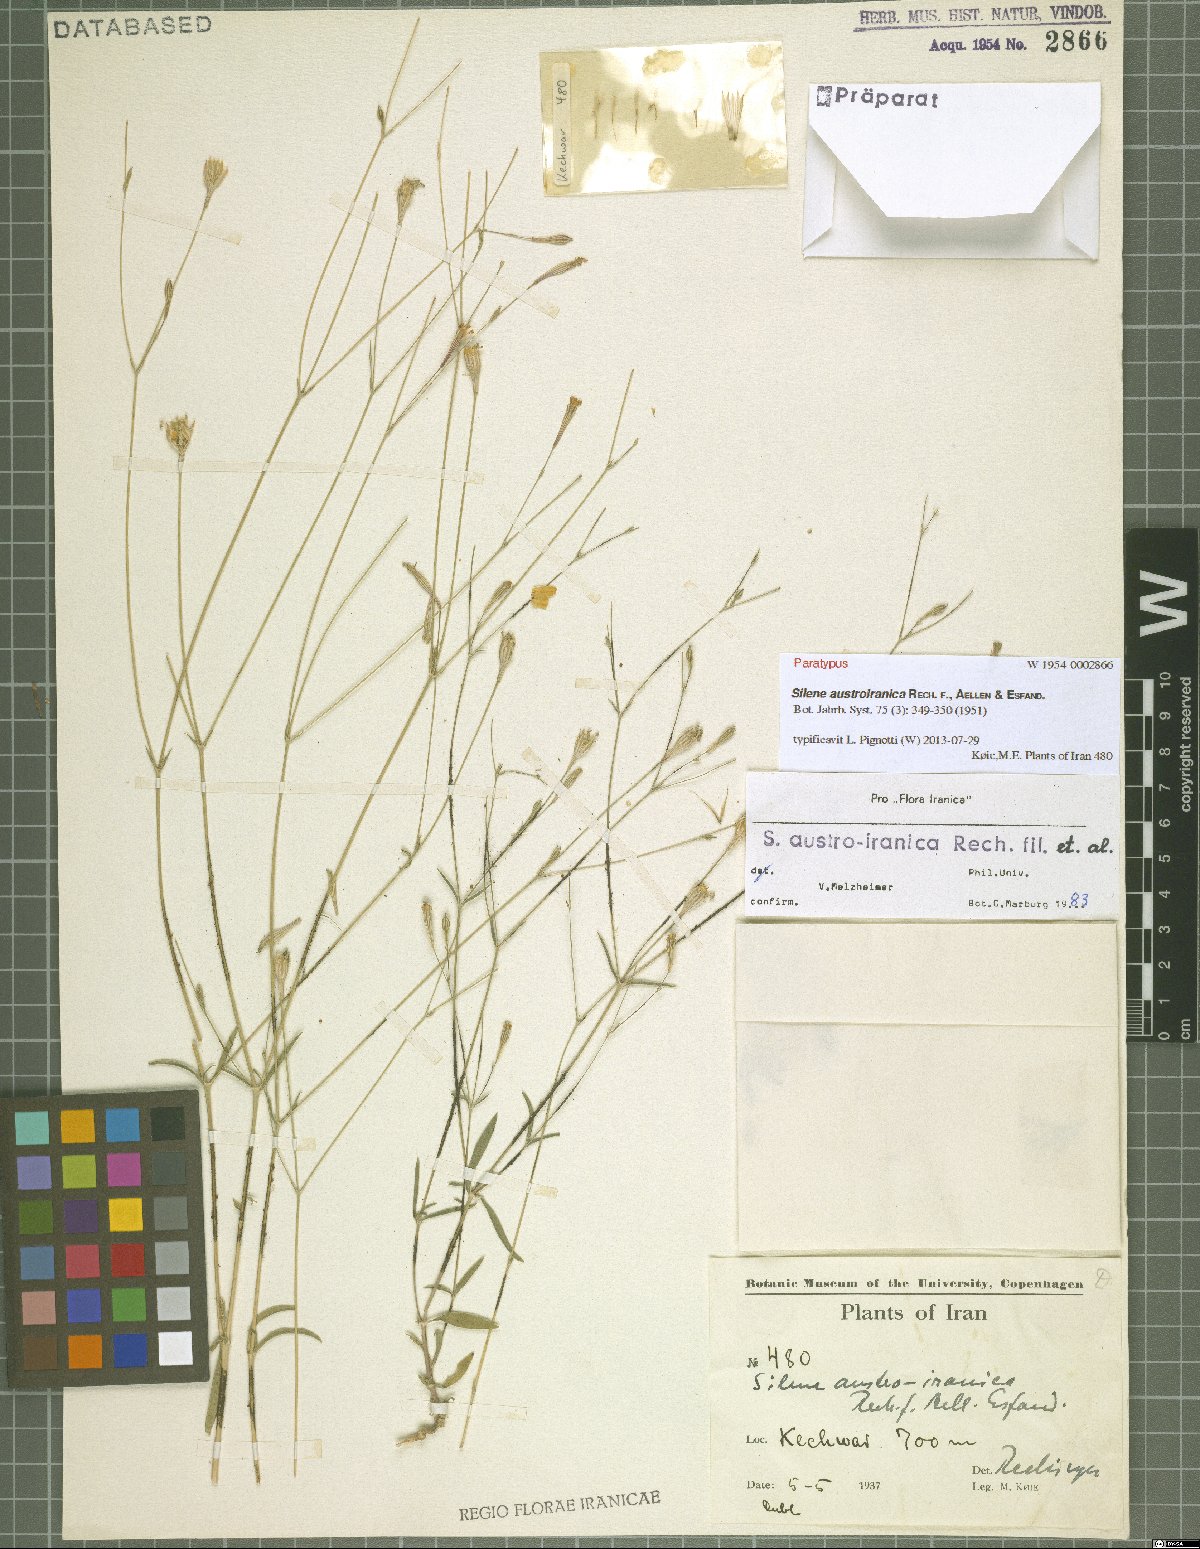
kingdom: Plantae
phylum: Tracheophyta
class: Magnoliopsida
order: Caryophyllales
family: Caryophyllaceae
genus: Silene
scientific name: Silene austroiranica
